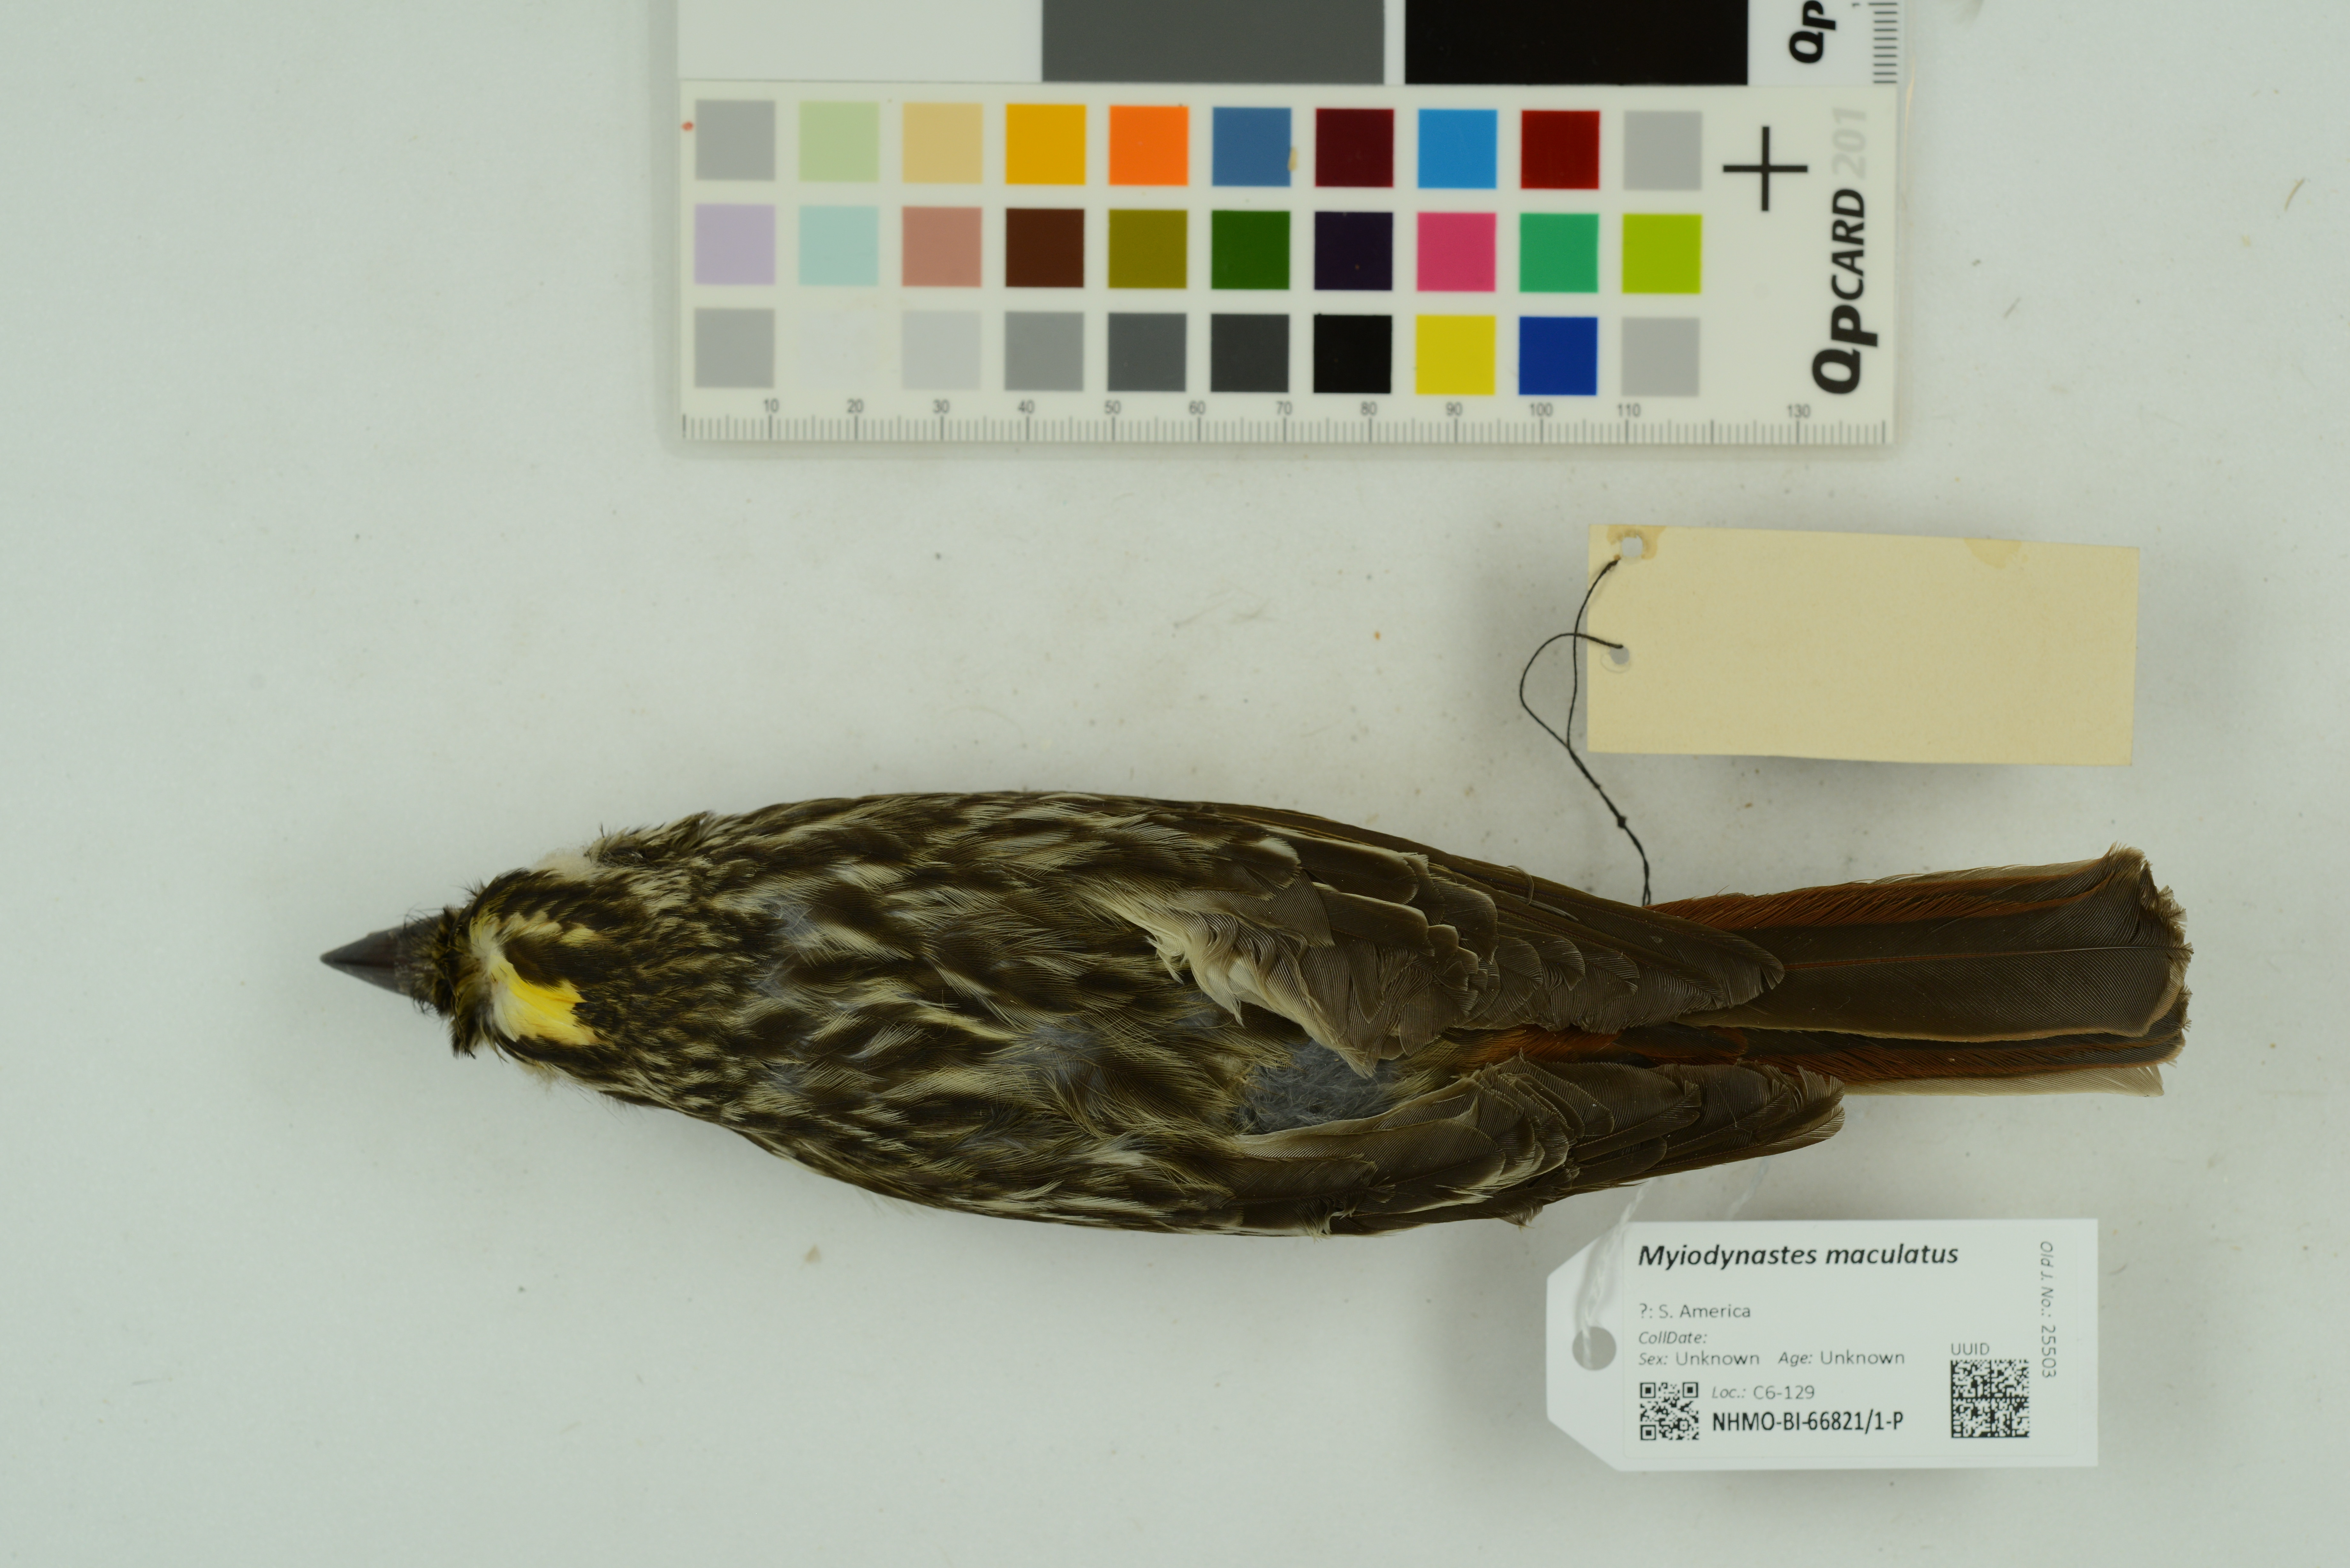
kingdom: Animalia
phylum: Chordata
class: Aves
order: Passeriformes
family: Tyrannidae
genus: Myiodynastes
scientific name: Myiodynastes maculatus
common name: Streaked flycatcher
